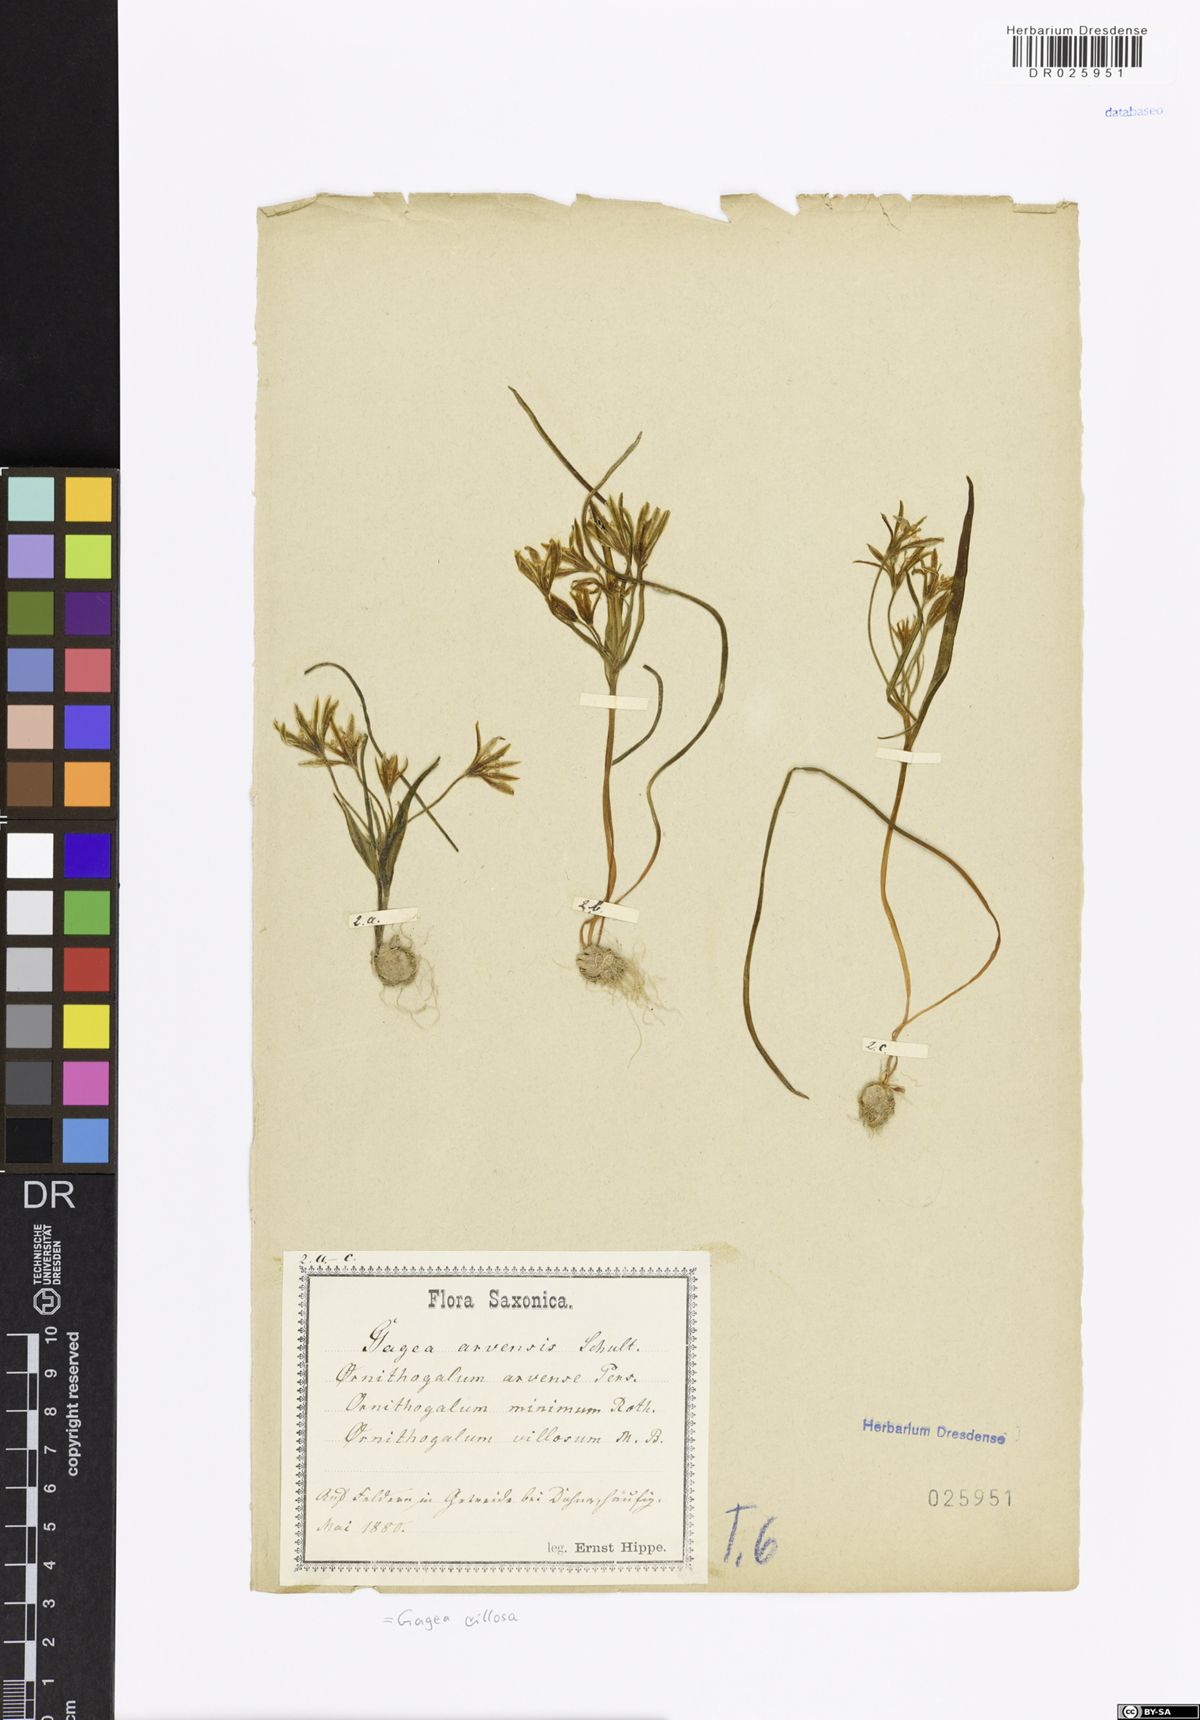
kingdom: Plantae
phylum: Tracheophyta
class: Liliopsida
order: Liliales
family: Liliaceae
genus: Gagea
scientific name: Gagea villosa
